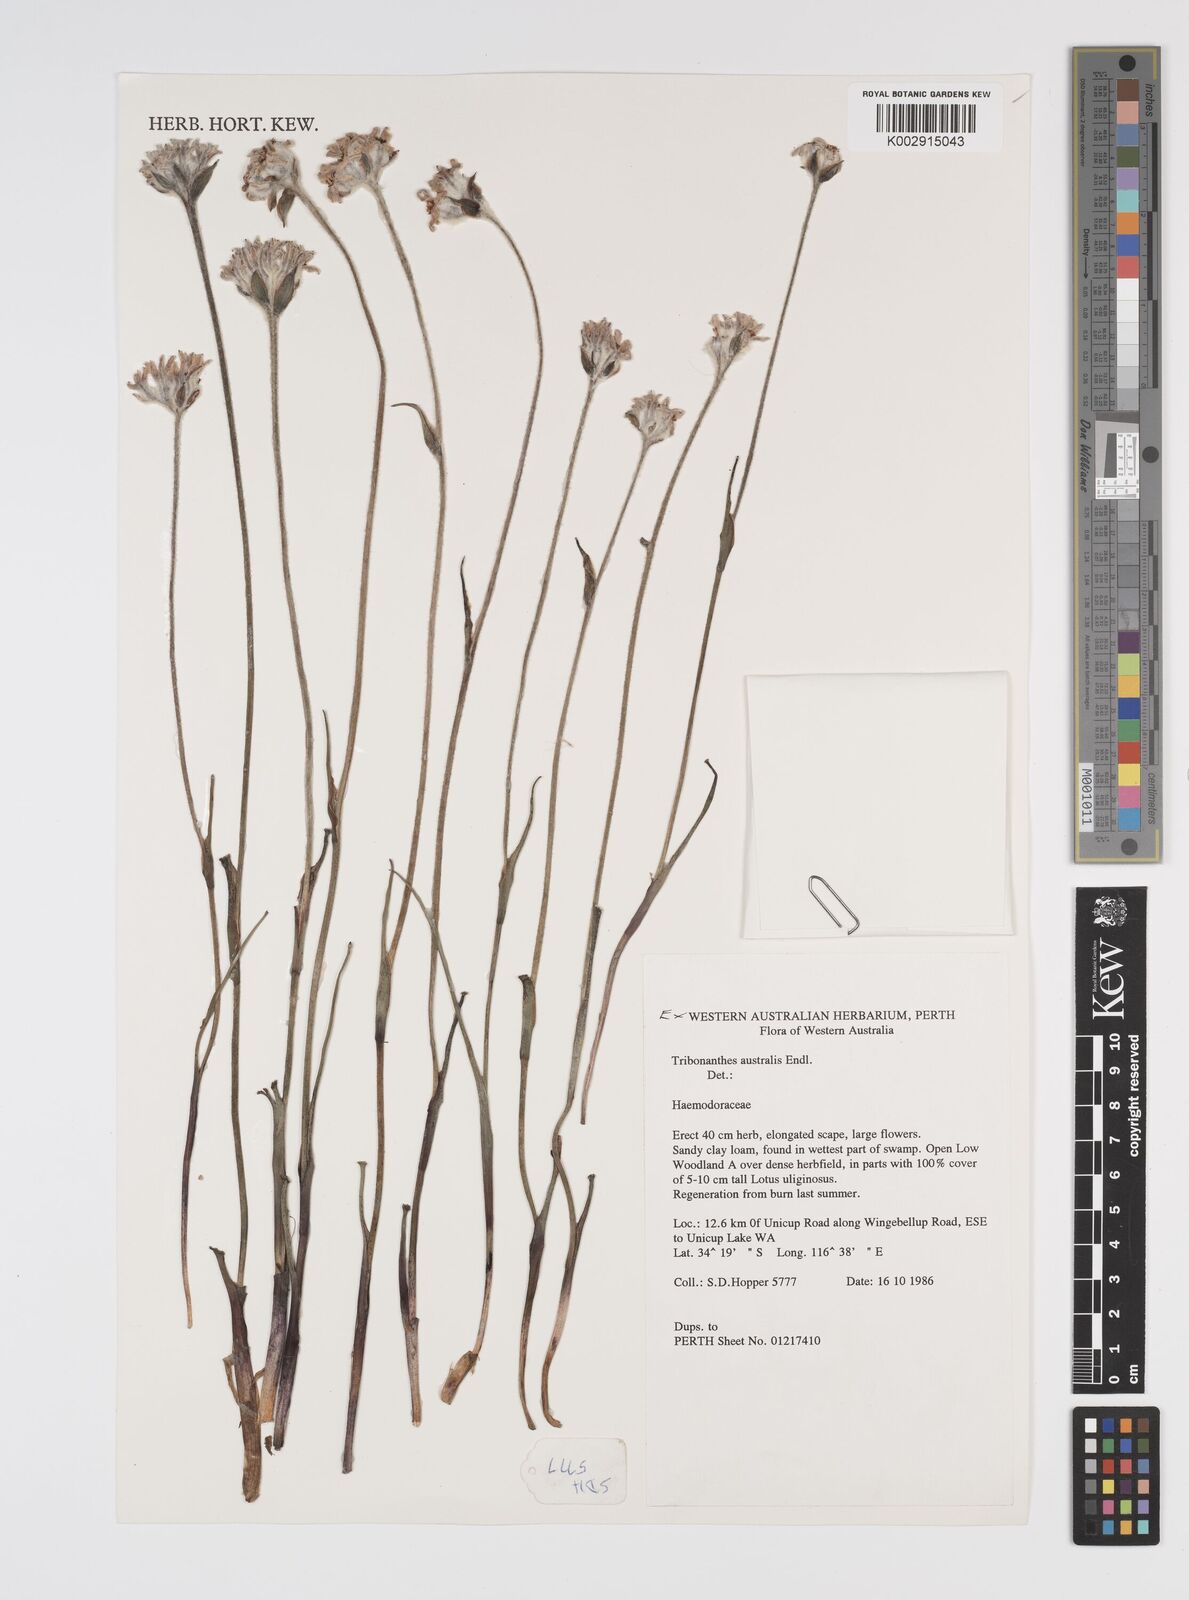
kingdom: Plantae
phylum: Tracheophyta
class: Liliopsida
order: Commelinales
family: Haemodoraceae
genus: Tribonanthes
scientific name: Tribonanthes australis
